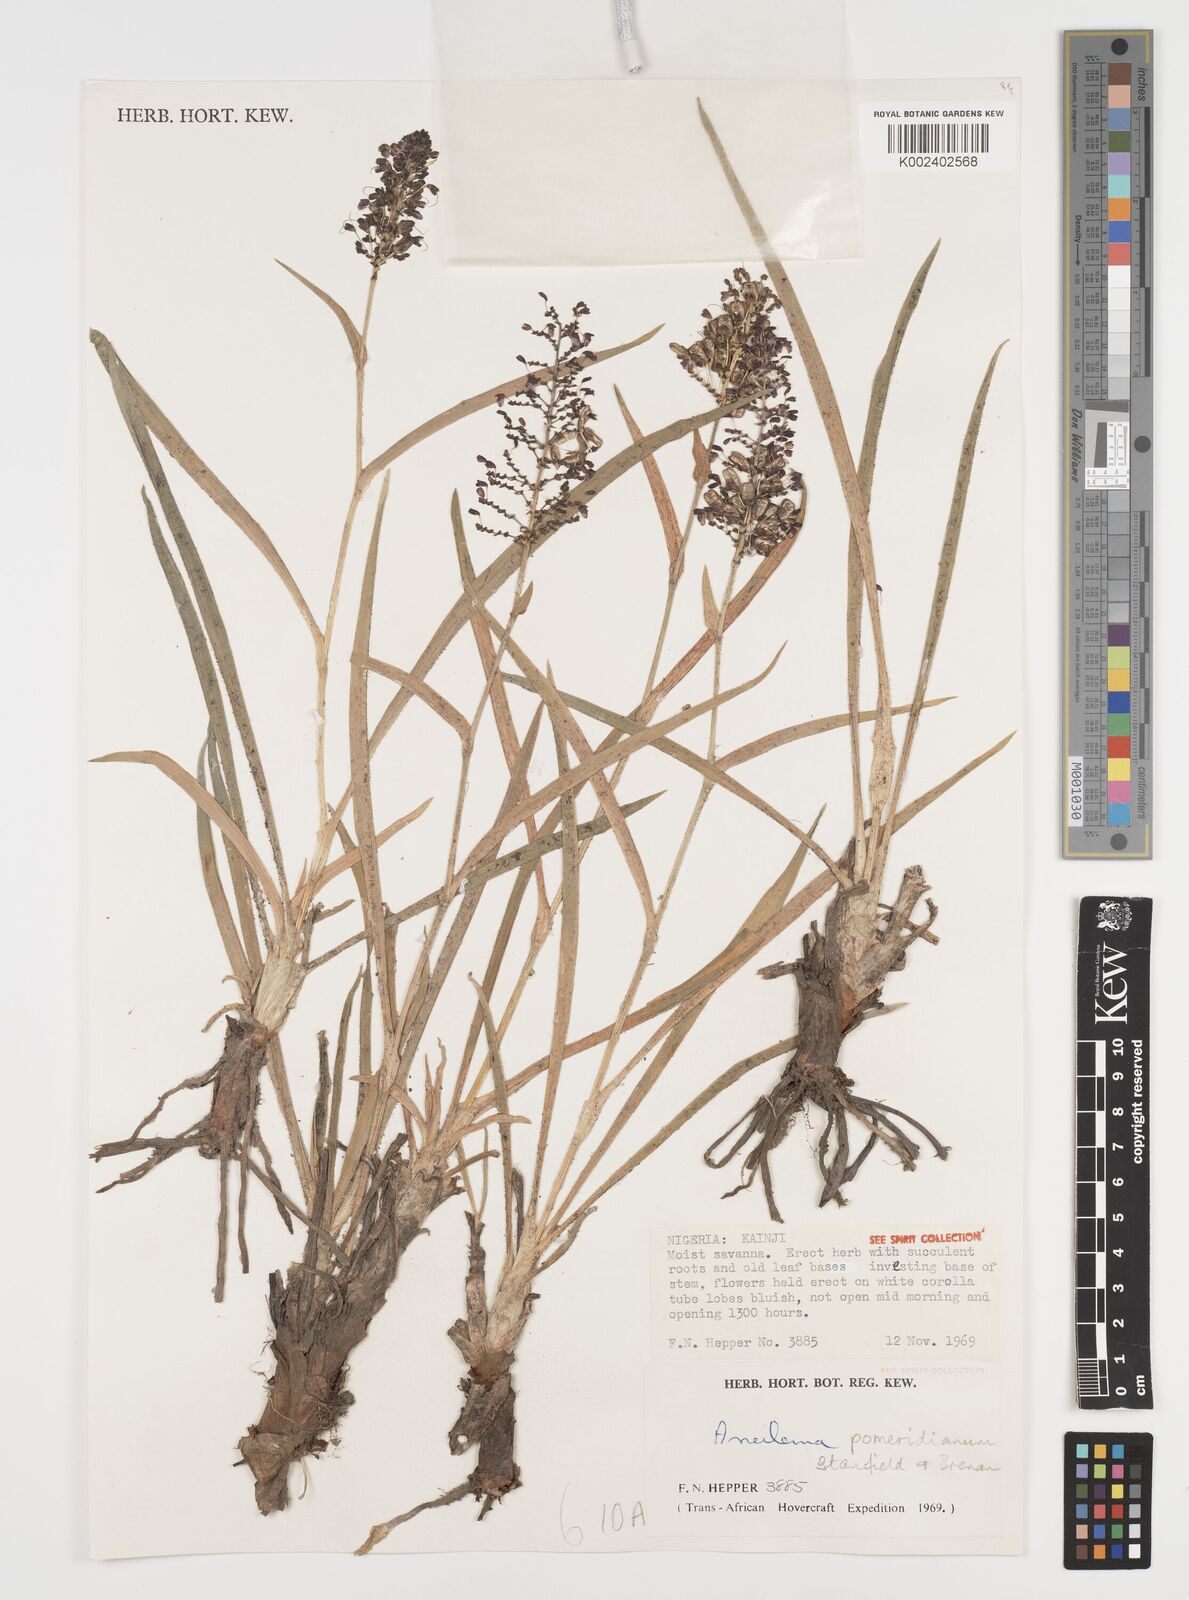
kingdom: Plantae
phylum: Tracheophyta
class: Liliopsida
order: Commelinales
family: Commelinaceae
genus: Aneilema
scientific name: Aneilema pomeridianum
